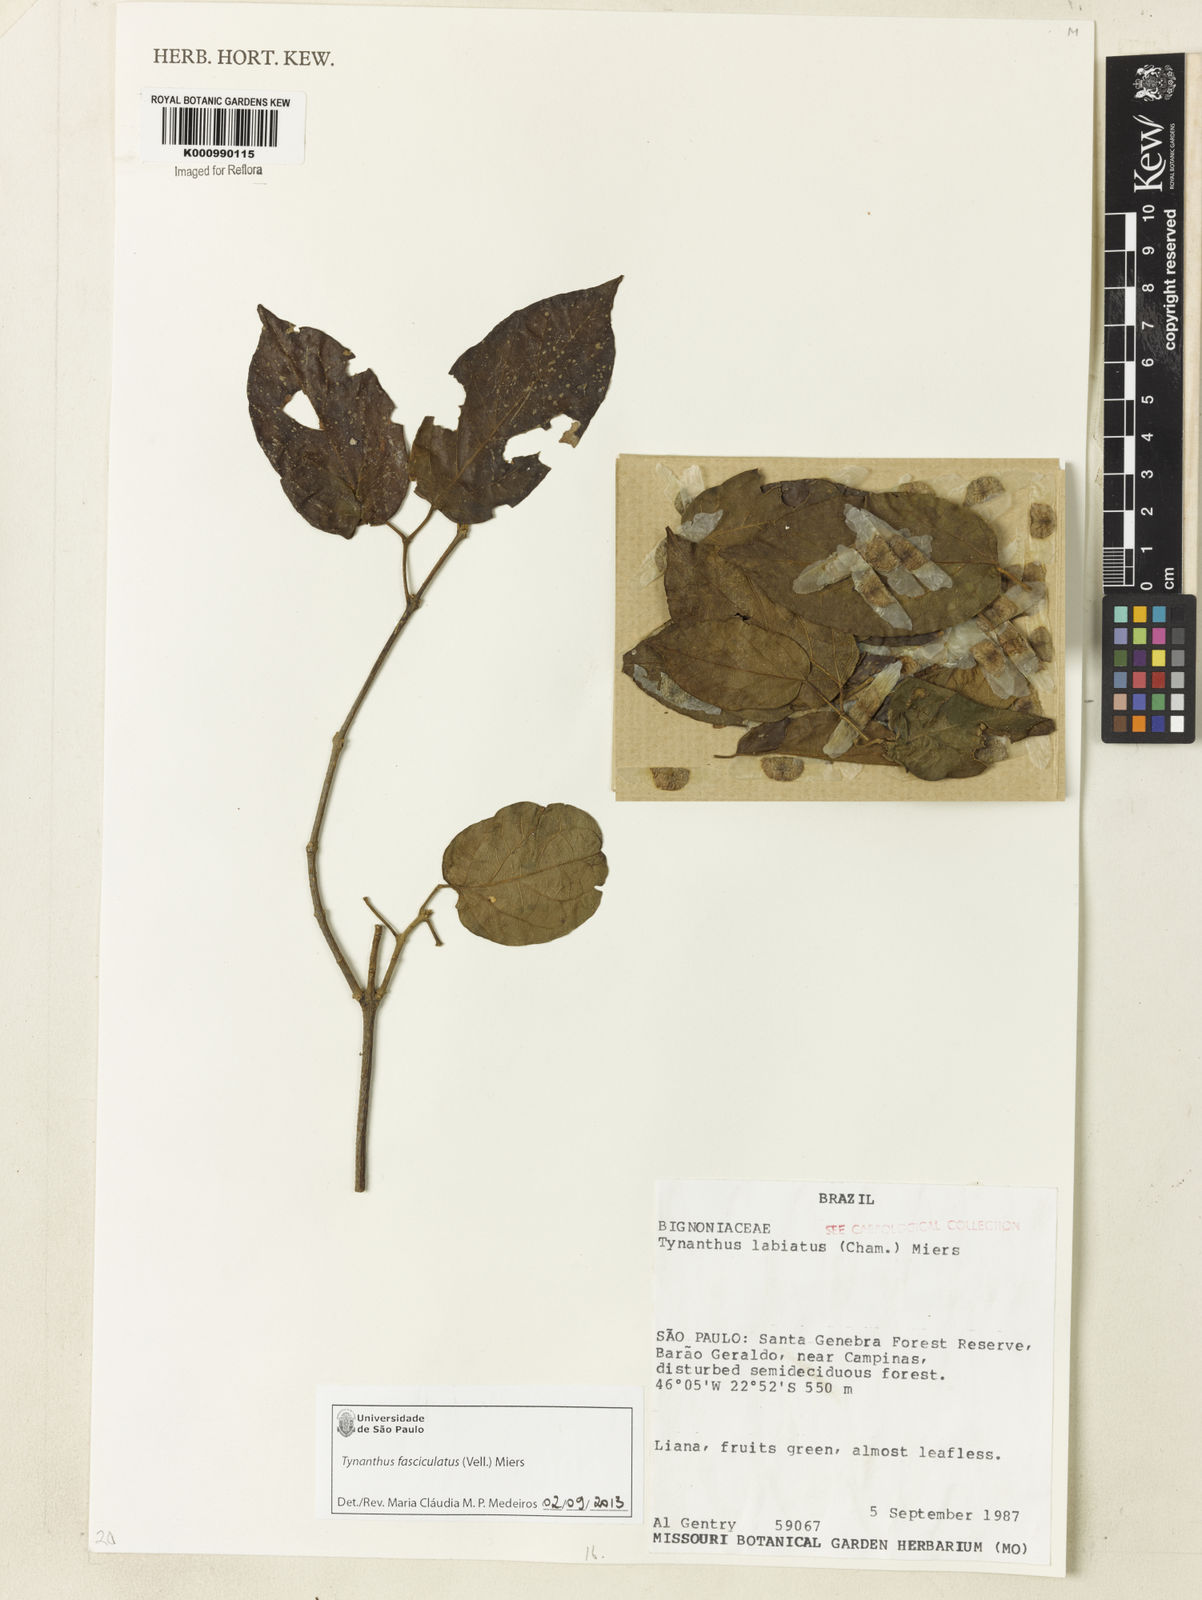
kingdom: Plantae
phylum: Tracheophyta
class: Magnoliopsida
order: Lamiales
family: Bignoniaceae
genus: Tynanthus
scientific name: Tynanthus fasciculatus
